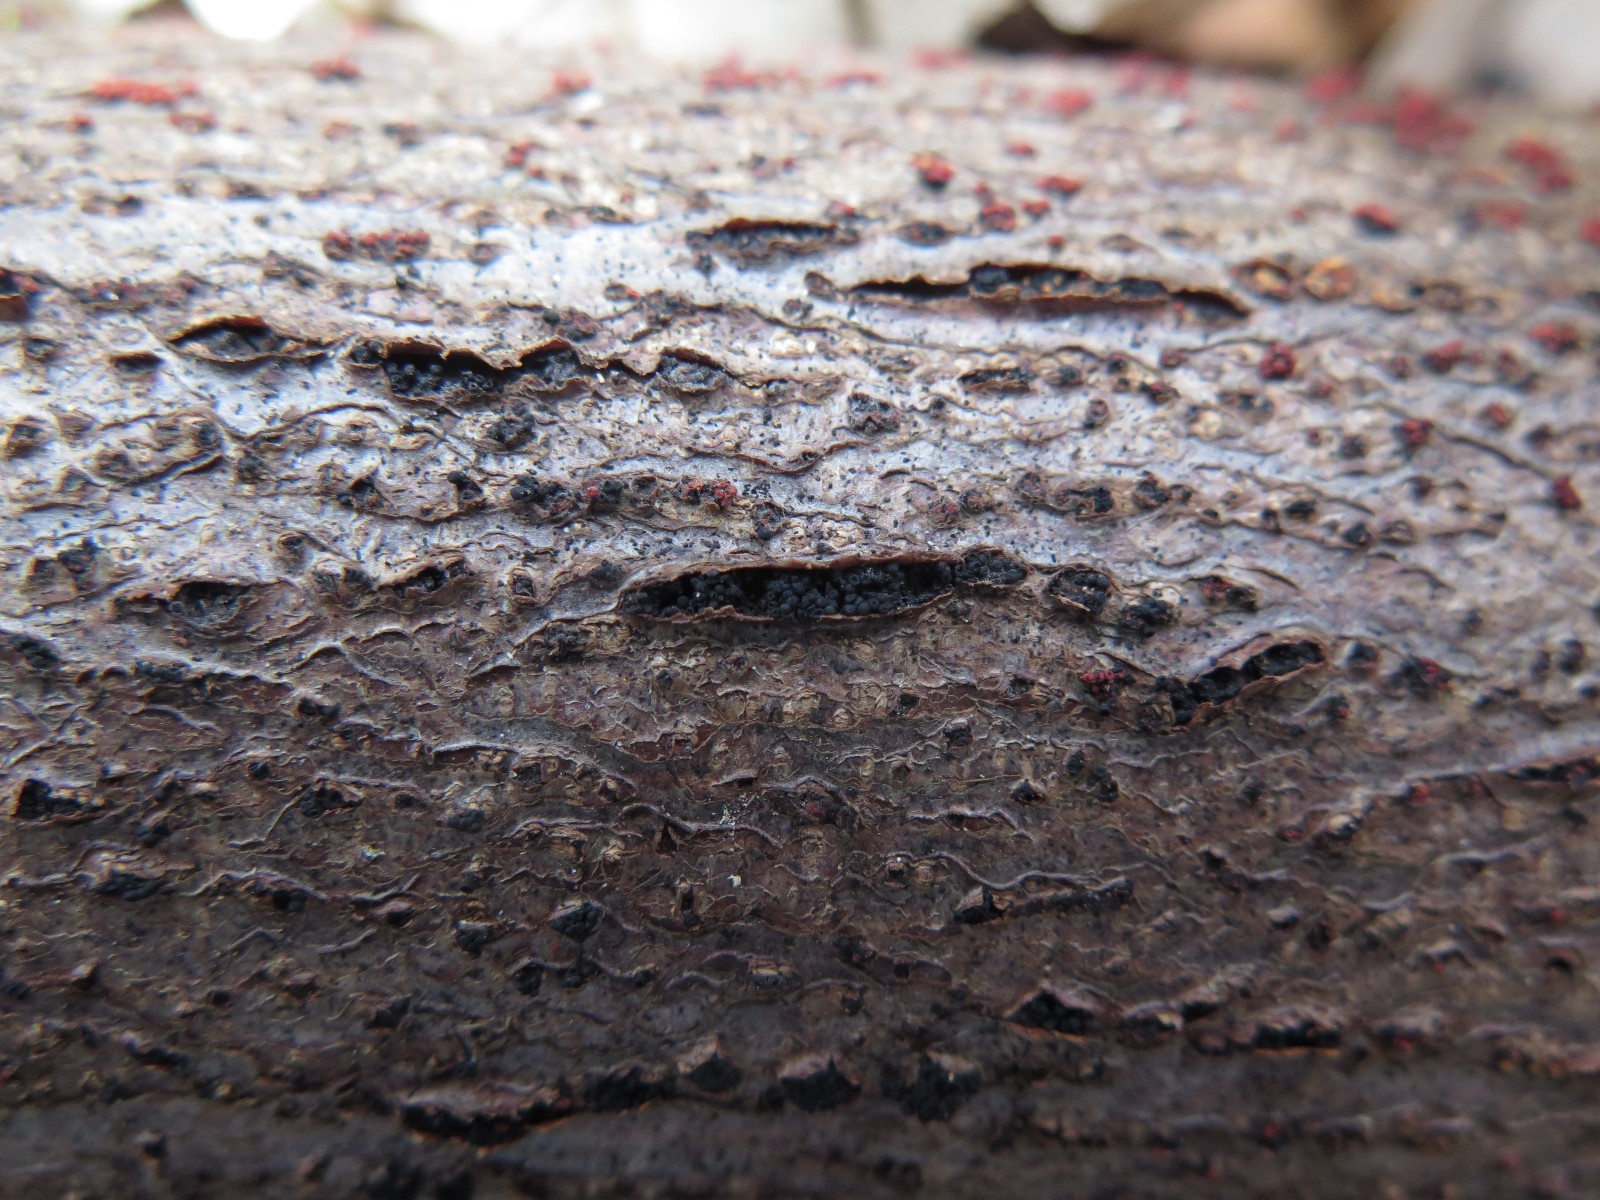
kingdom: Fungi
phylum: Ascomycota
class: Sordariomycetes
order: Coronophorales
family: Nitschkiaceae
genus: Nitschkia
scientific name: Nitschkia parasitans
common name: snyltende skålkerne
